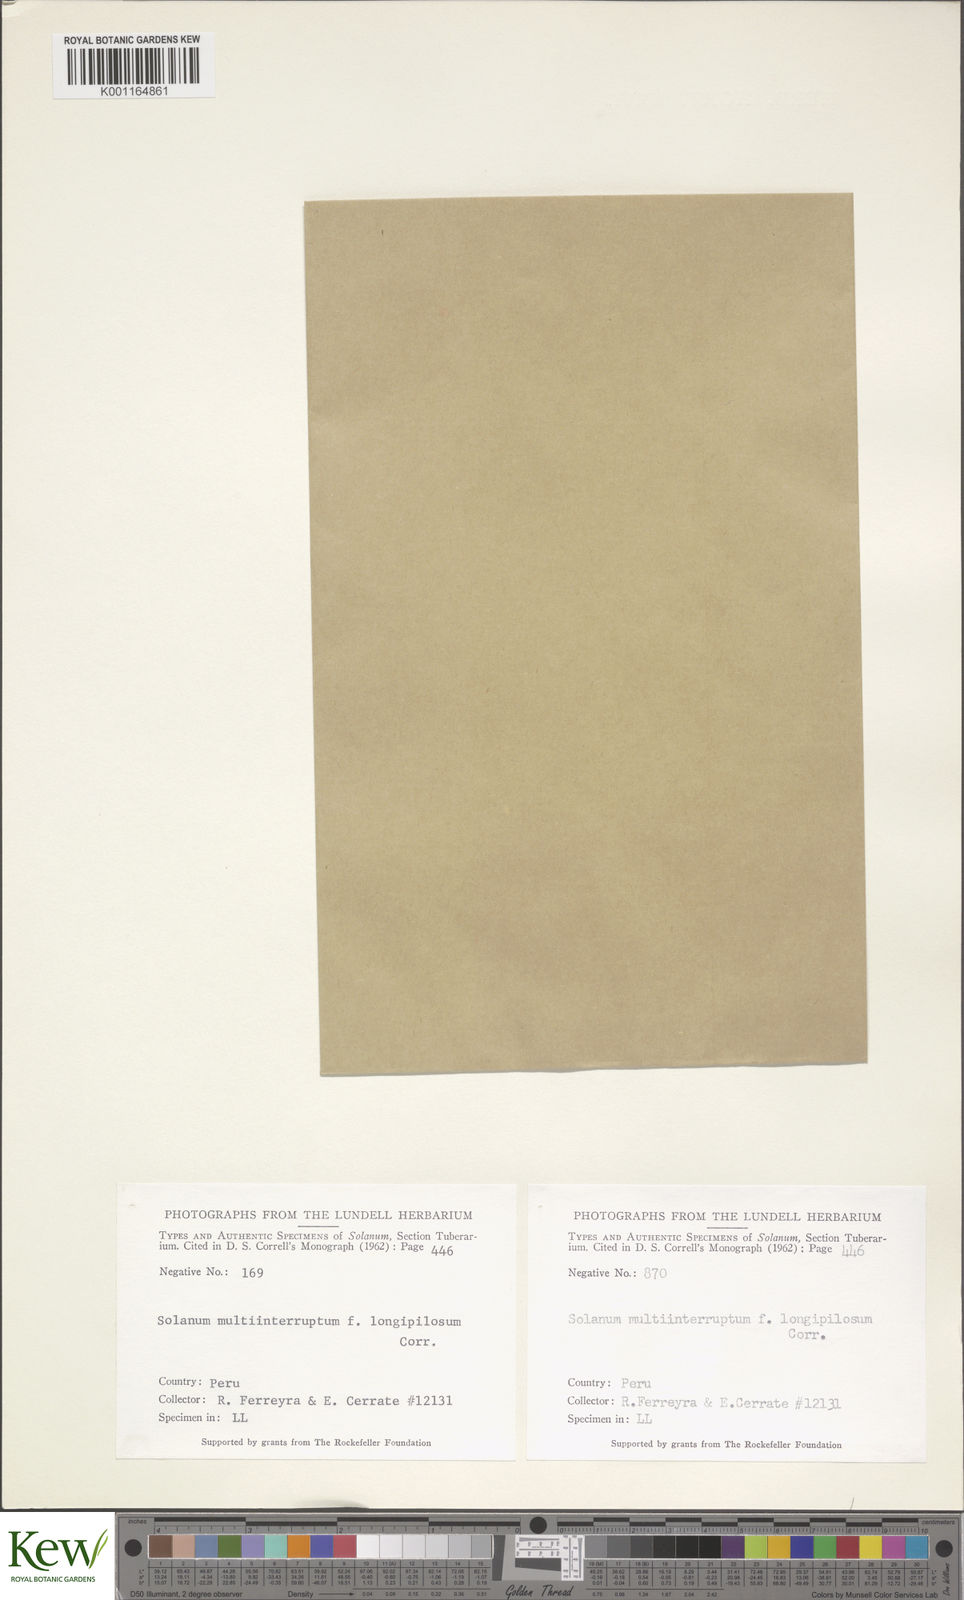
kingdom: Plantae
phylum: Tracheophyta
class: Magnoliopsida
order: Solanales
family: Solanaceae
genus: Solanum
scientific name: Solanum candolleanum
